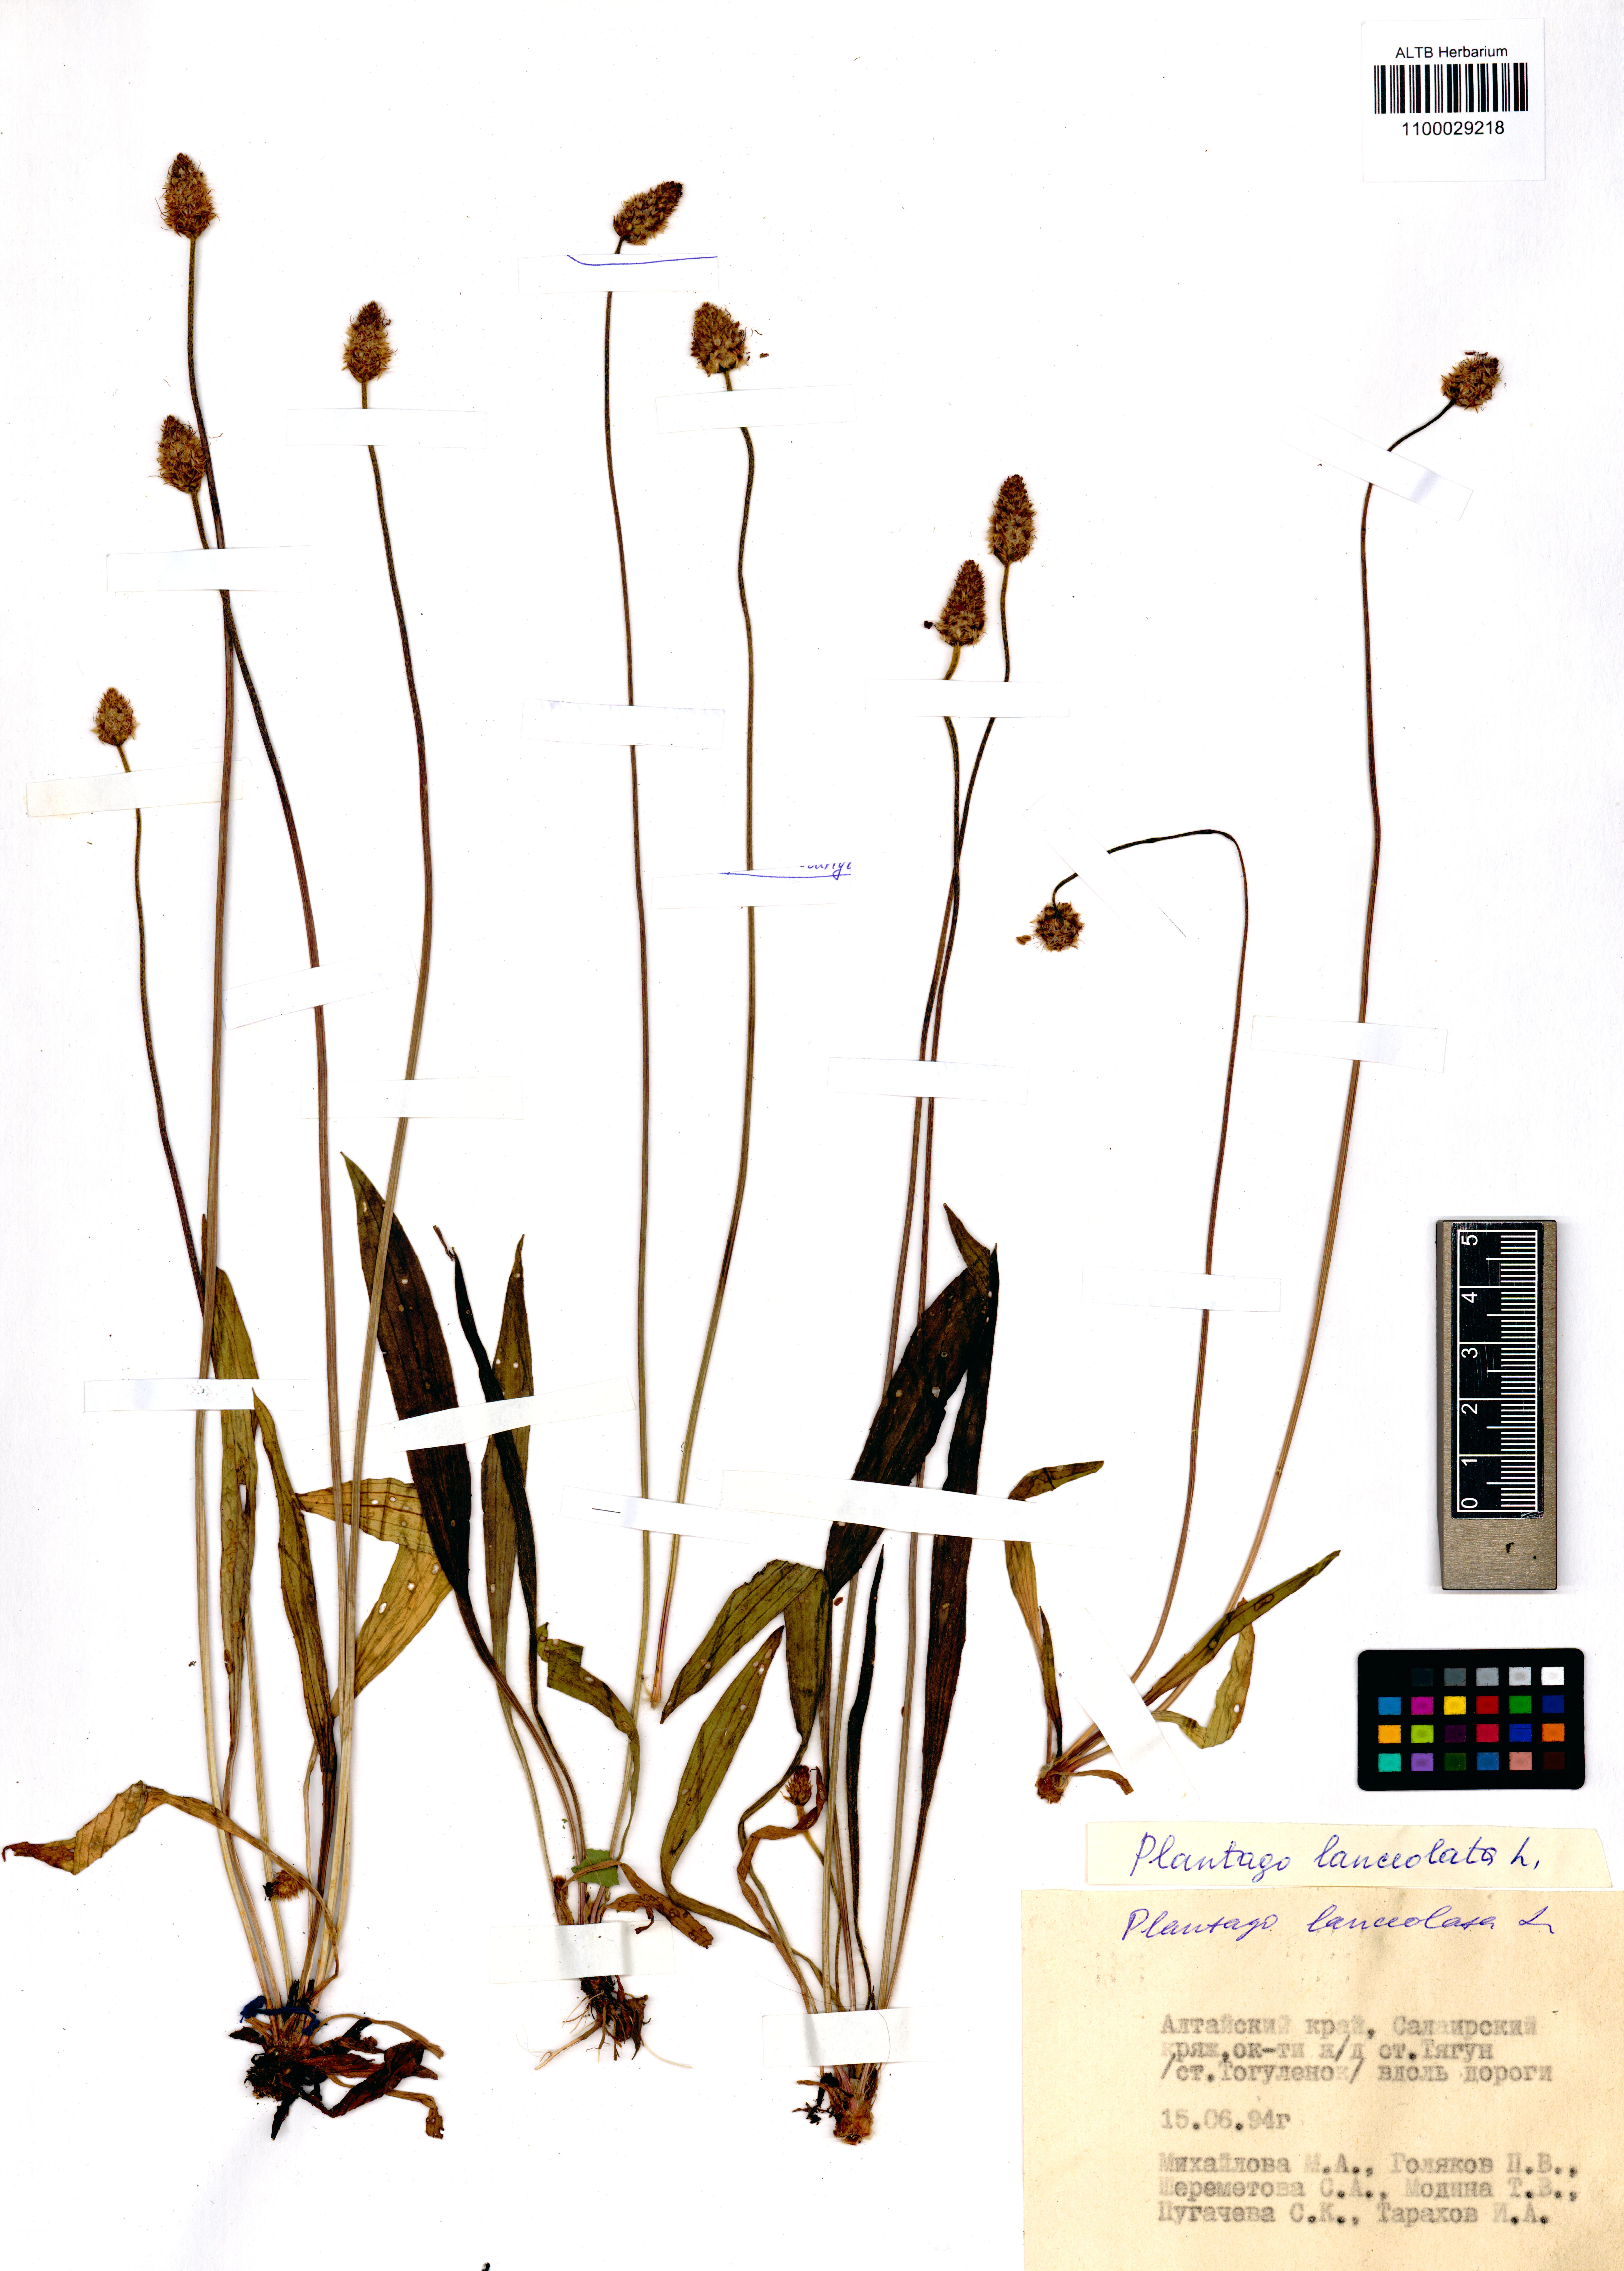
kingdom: Plantae
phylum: Tracheophyta
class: Magnoliopsida
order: Lamiales
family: Plantaginaceae
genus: Plantago
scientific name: Plantago lanceolata
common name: Ribwort plantain
